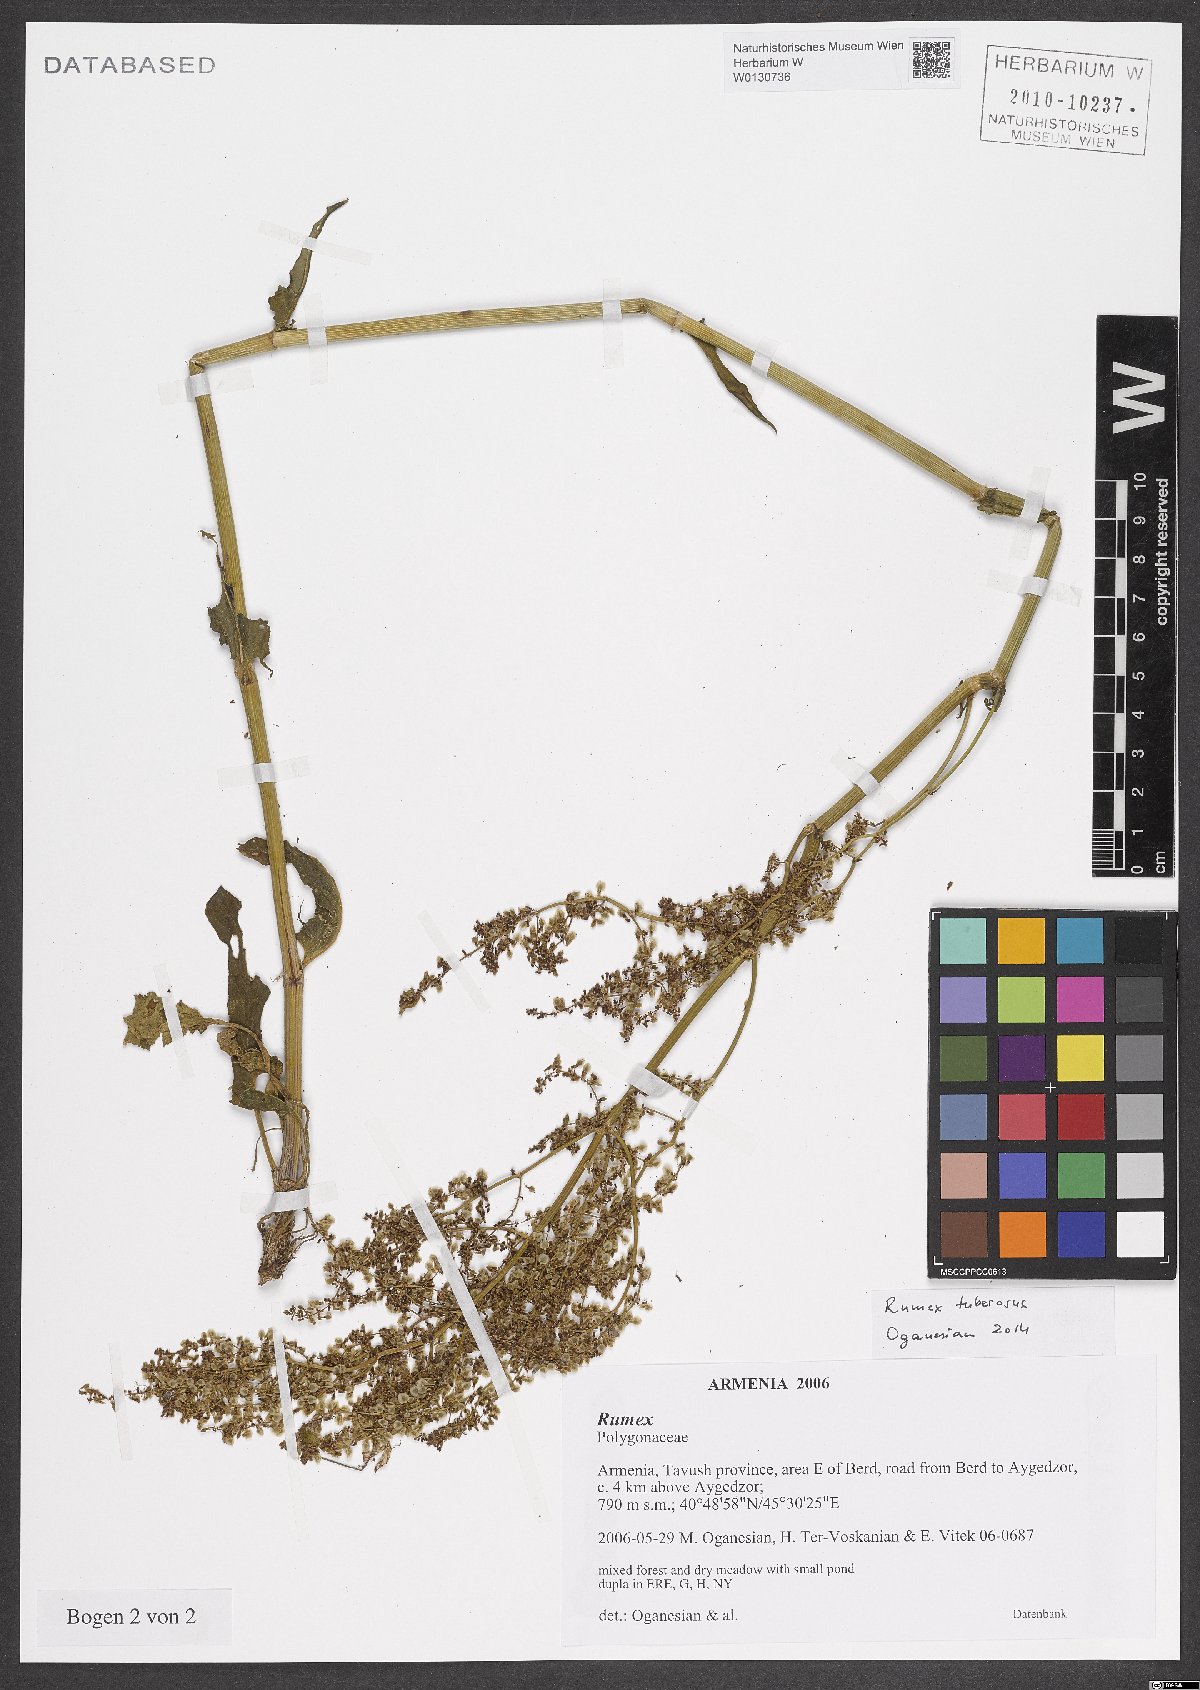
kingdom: Plantae
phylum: Tracheophyta
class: Magnoliopsida
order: Caryophyllales
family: Polygonaceae
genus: Rumex
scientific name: Rumex tuberosus
